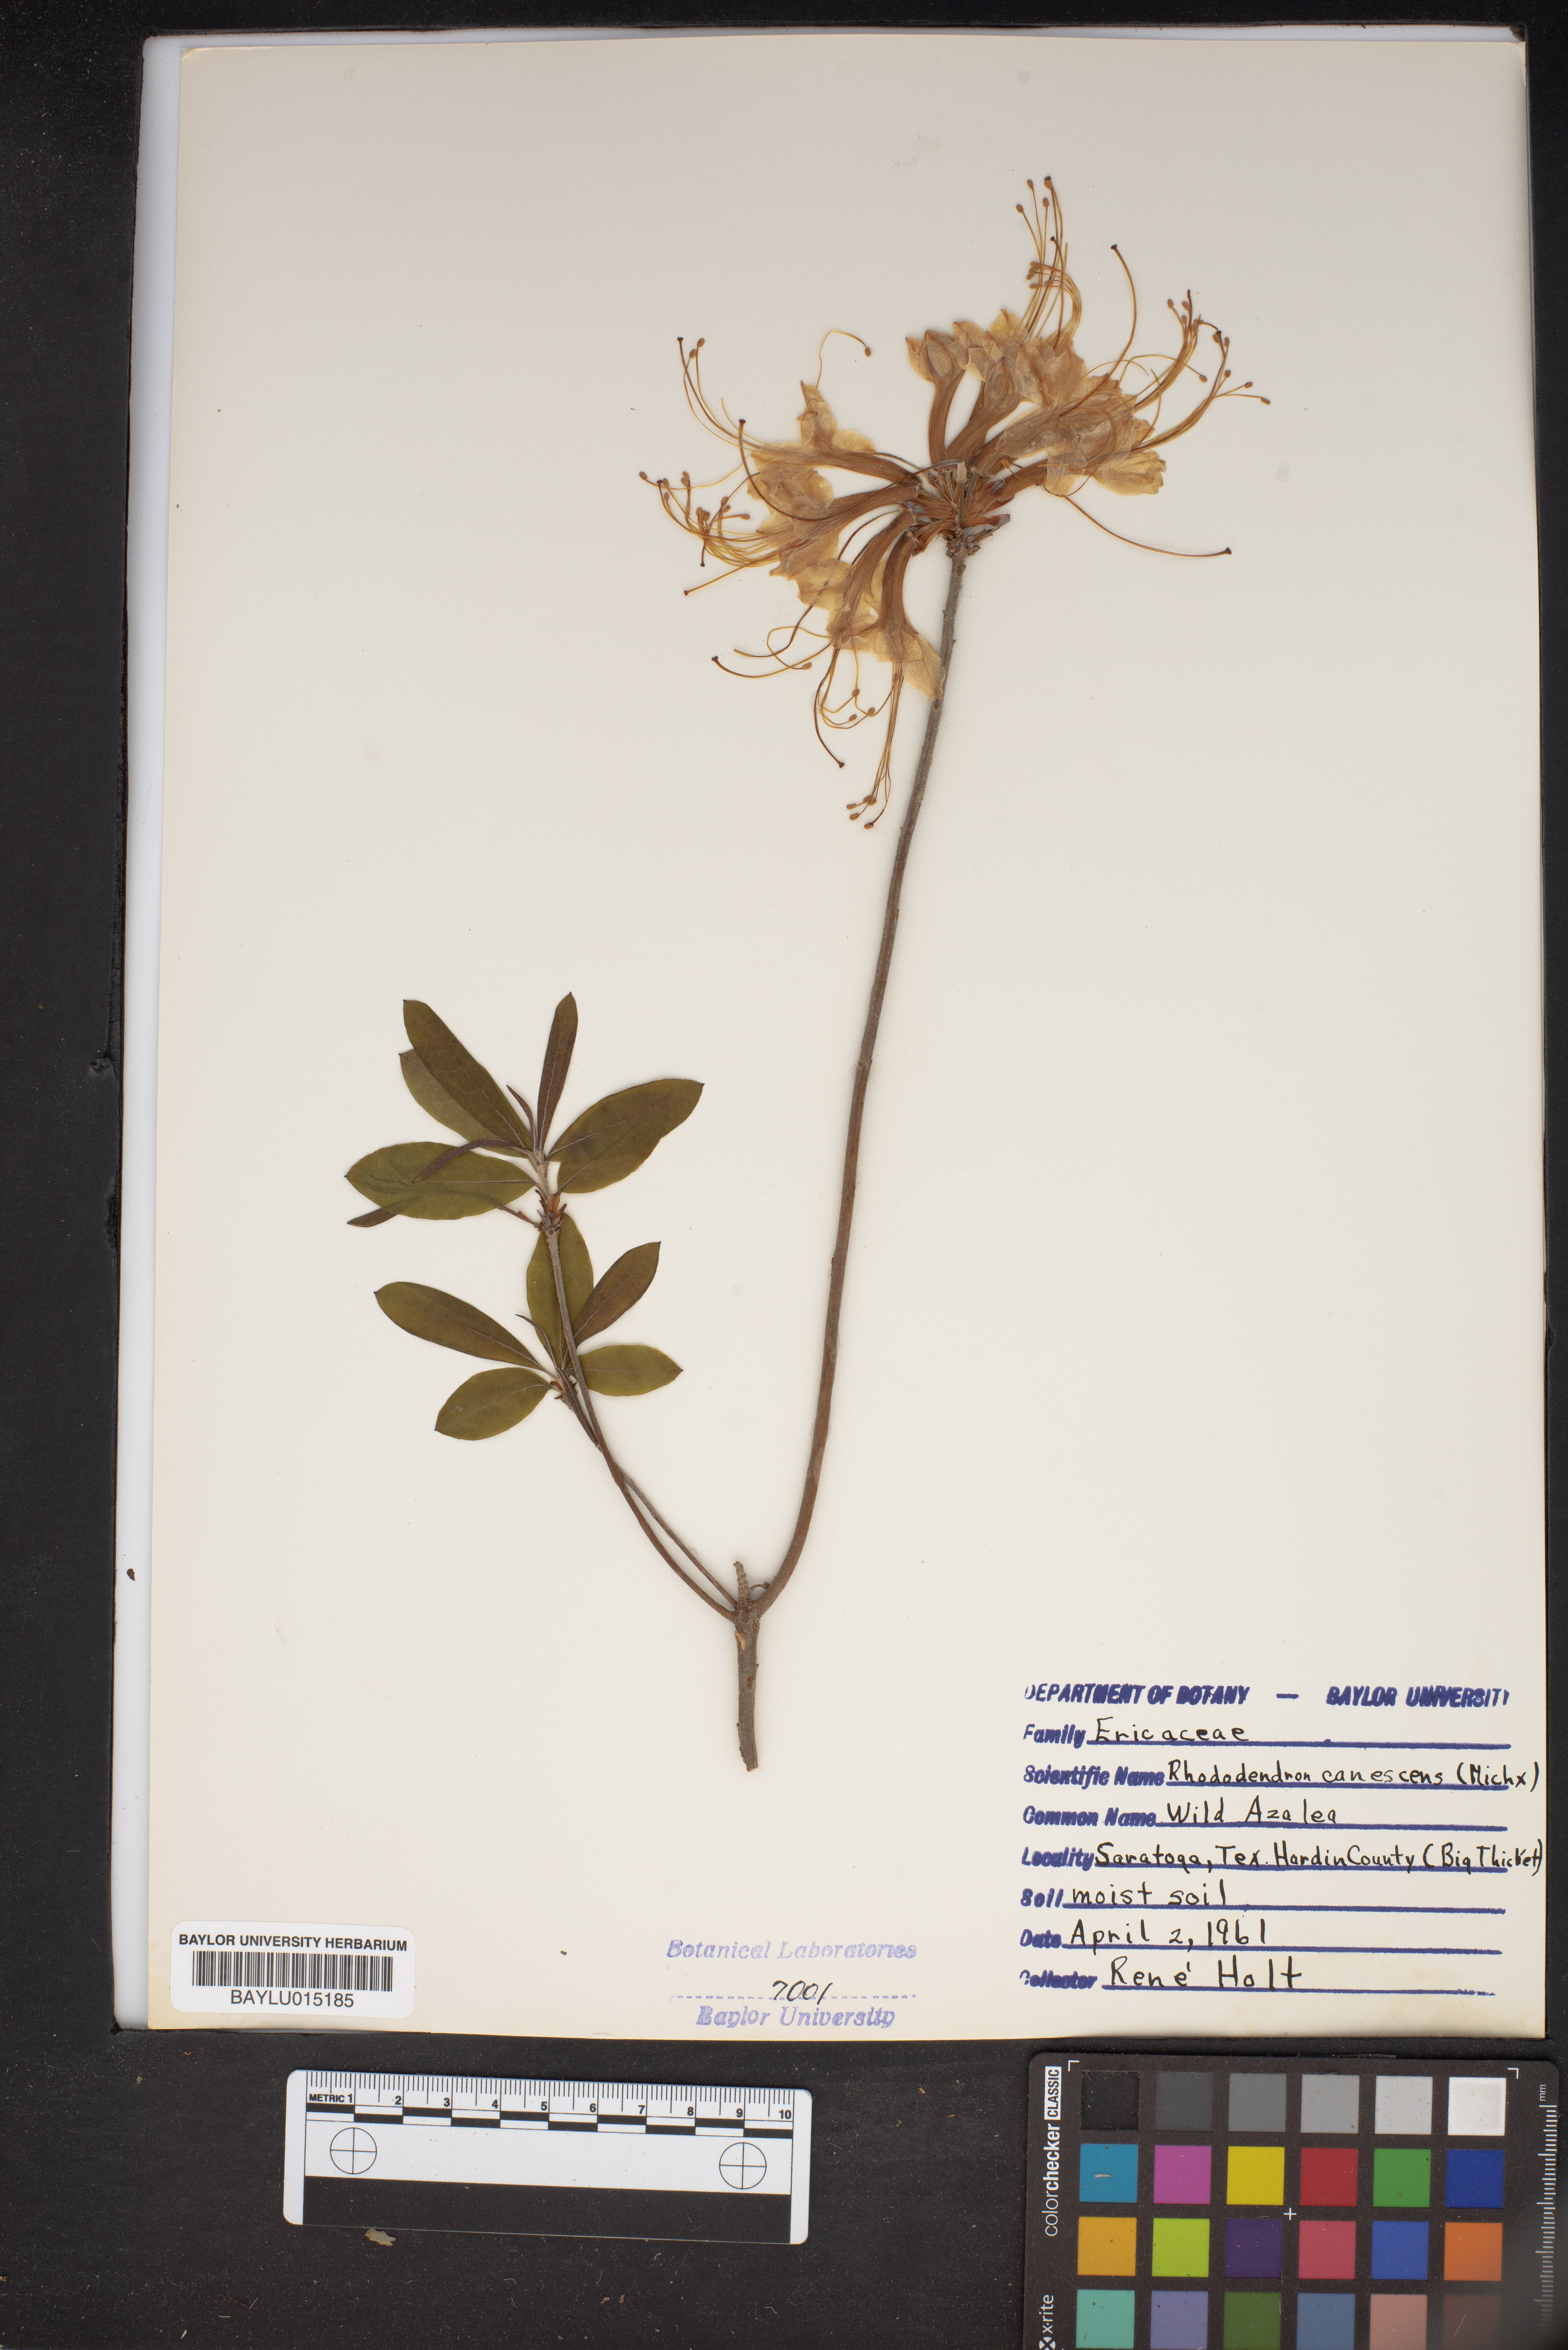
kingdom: Plantae
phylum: Tracheophyta
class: Magnoliopsida
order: Ericales
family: Ericaceae
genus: Rhododendron
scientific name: Rhododendron canadense
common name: Rhodora
